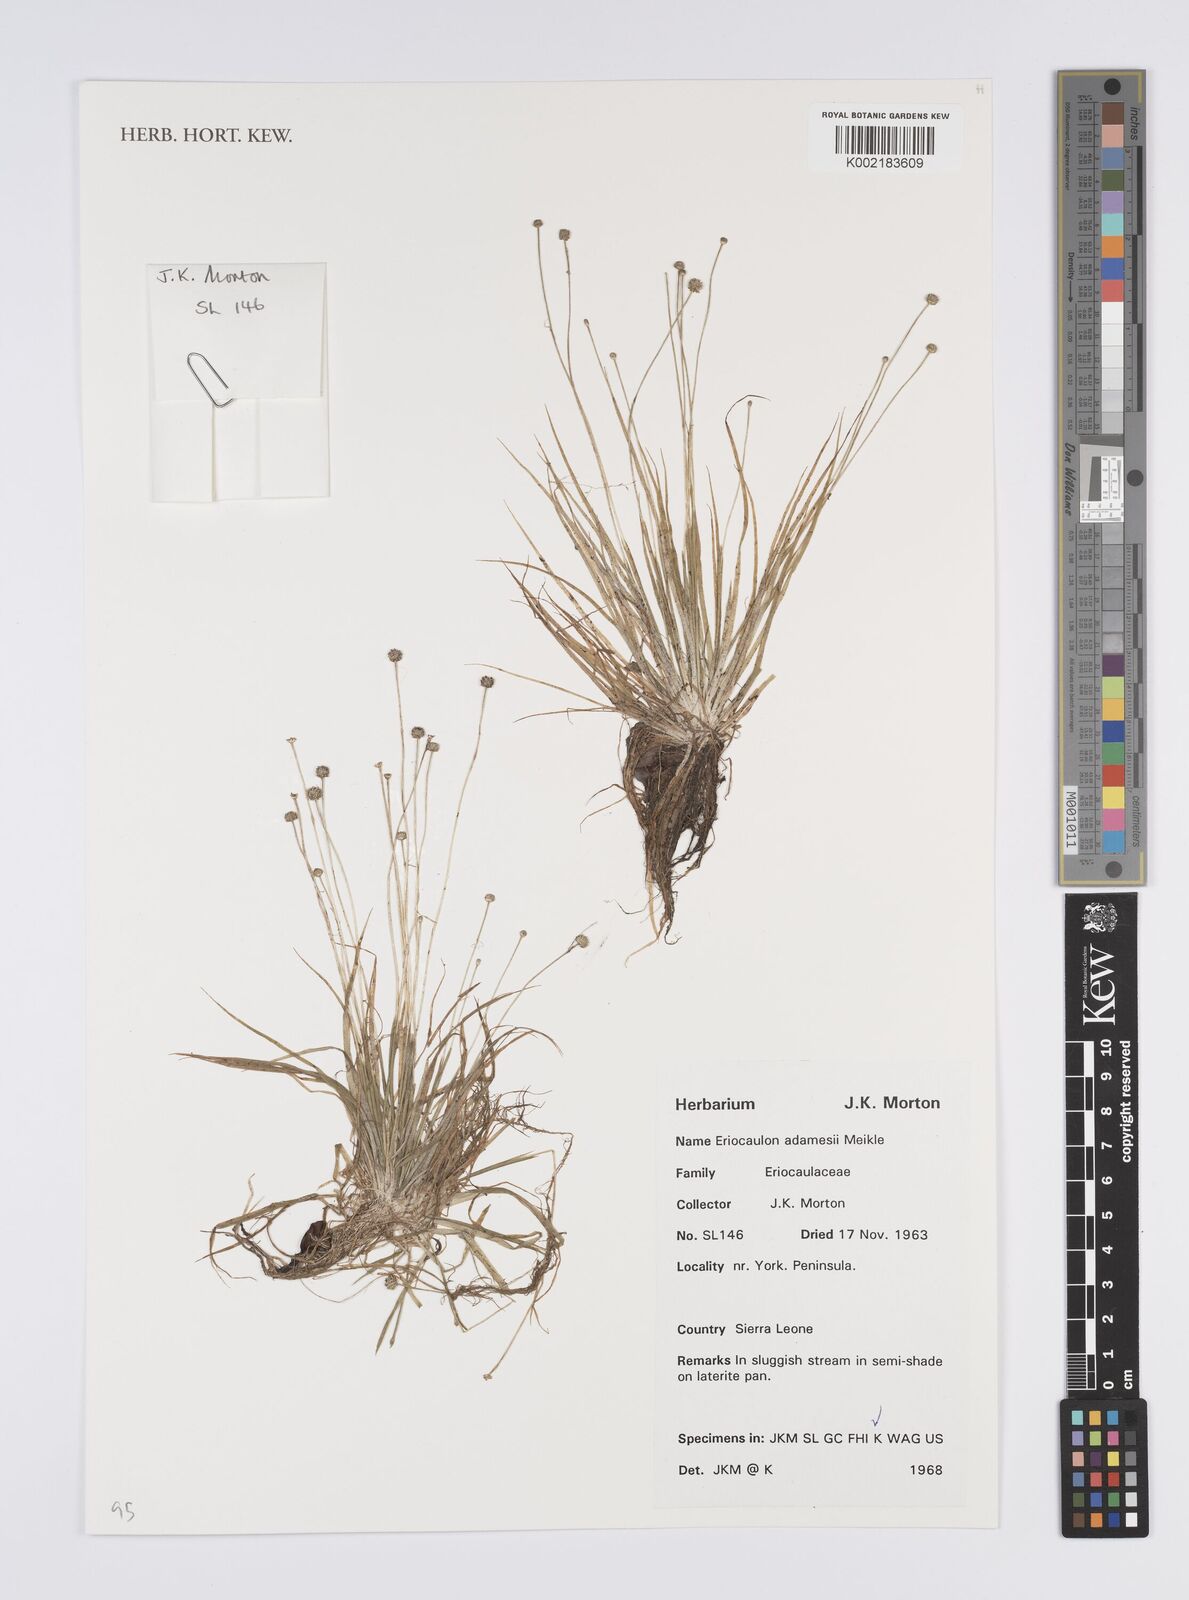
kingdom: Plantae
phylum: Tracheophyta
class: Liliopsida
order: Poales
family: Eriocaulaceae
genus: Eriocaulon
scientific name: Eriocaulon adamesii
